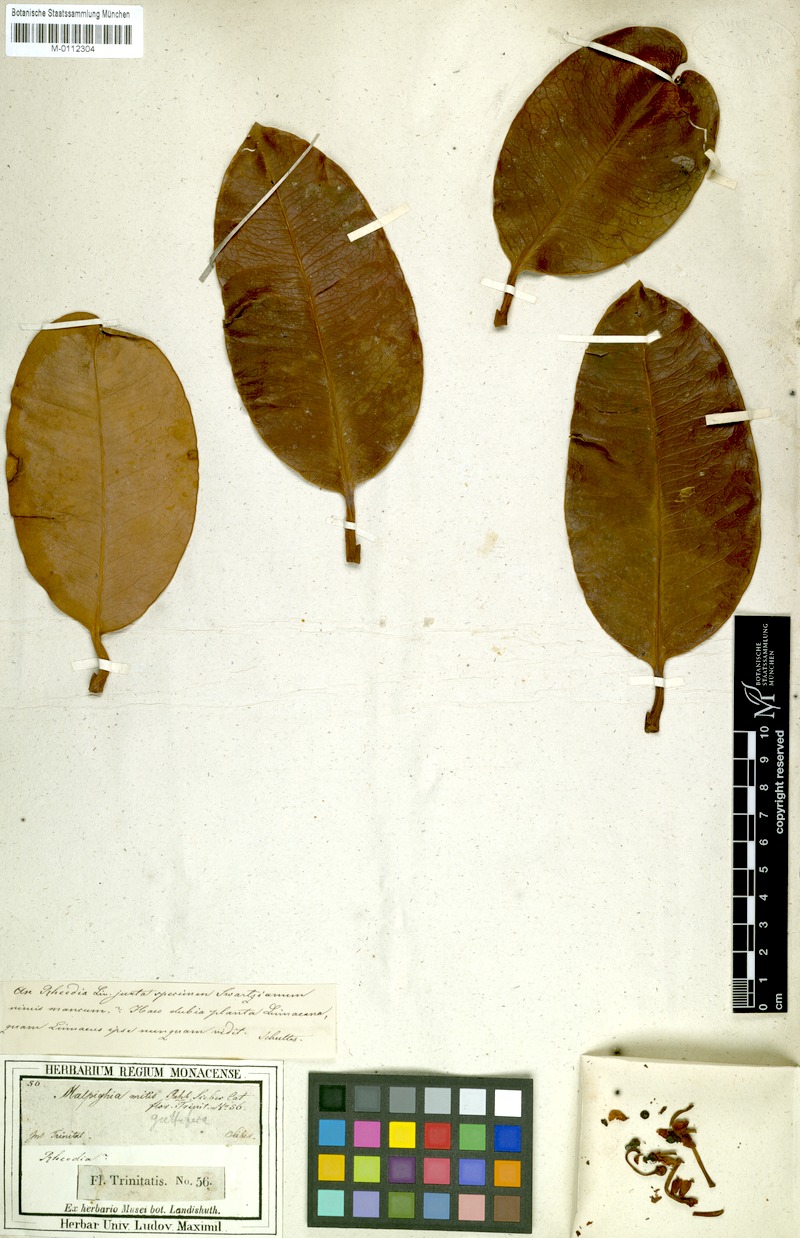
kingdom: Plantae
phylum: Tracheophyta
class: Magnoliopsida
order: Malpighiales
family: Clusiaceae
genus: Garcinia
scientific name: Garcinia humilis
